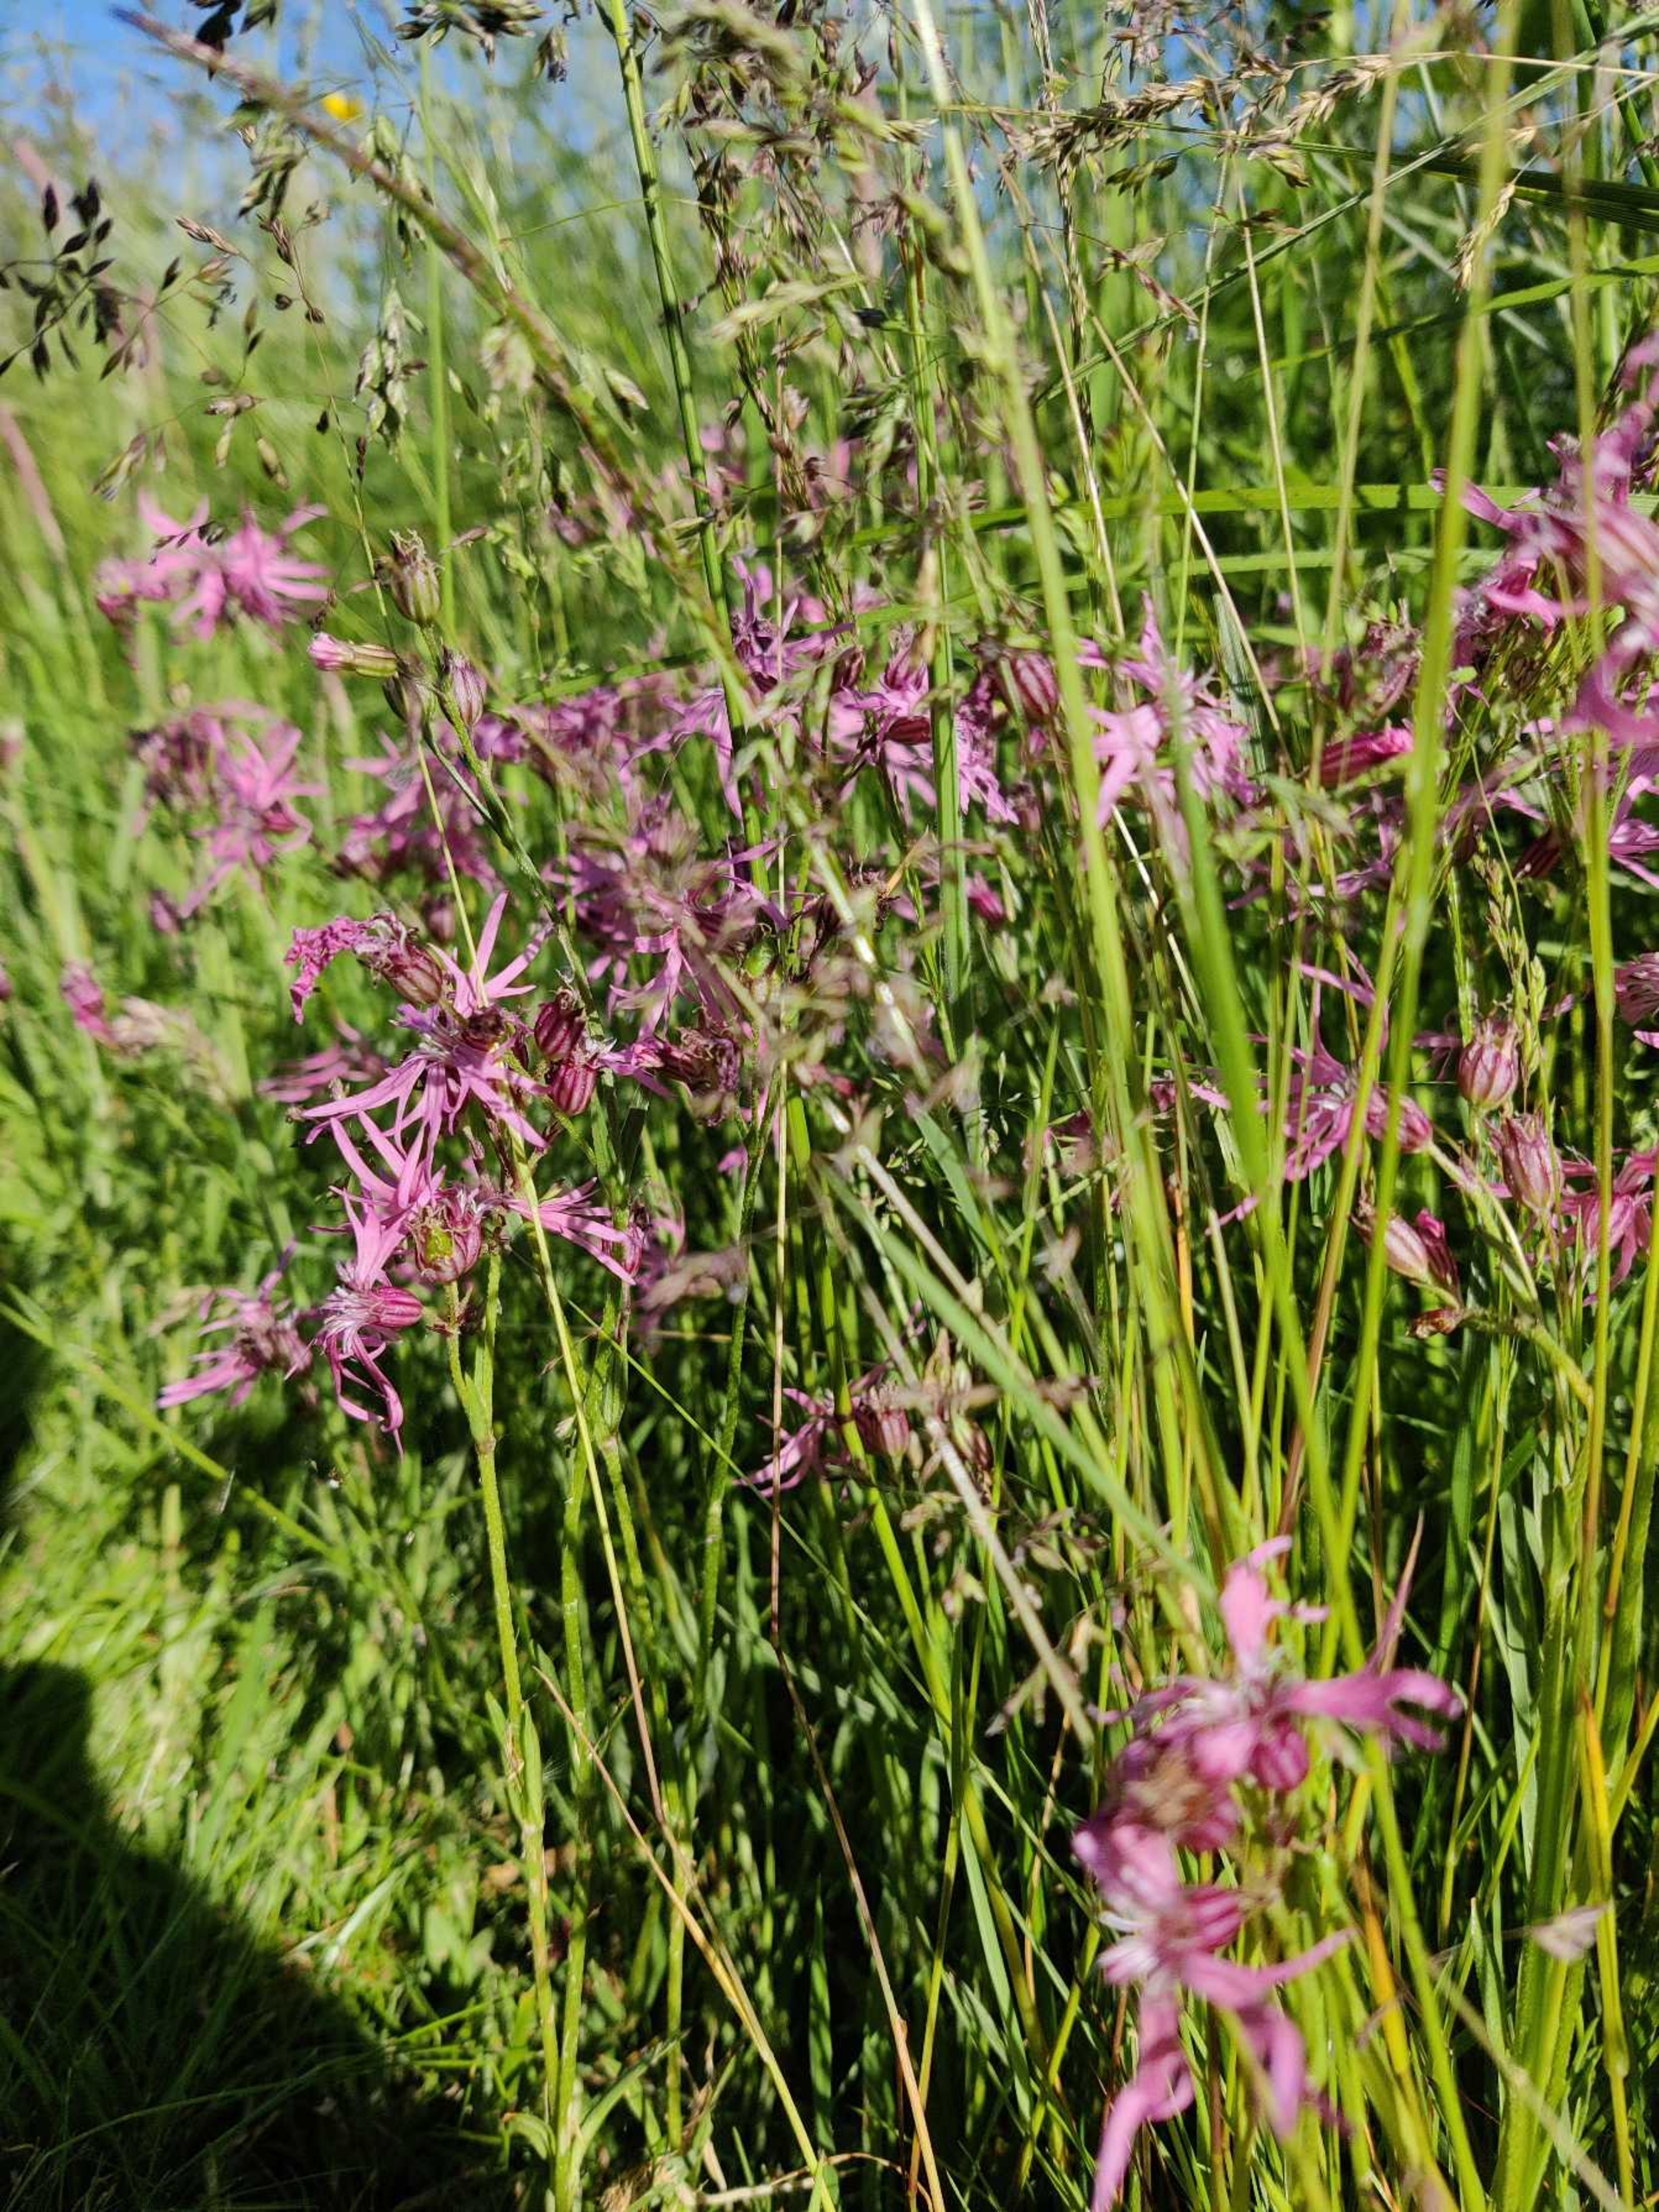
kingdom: Plantae
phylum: Tracheophyta
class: Magnoliopsida
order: Caryophyllales
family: Caryophyllaceae
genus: Silene
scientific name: Silene flos-cuculi
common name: Trævlekrone
